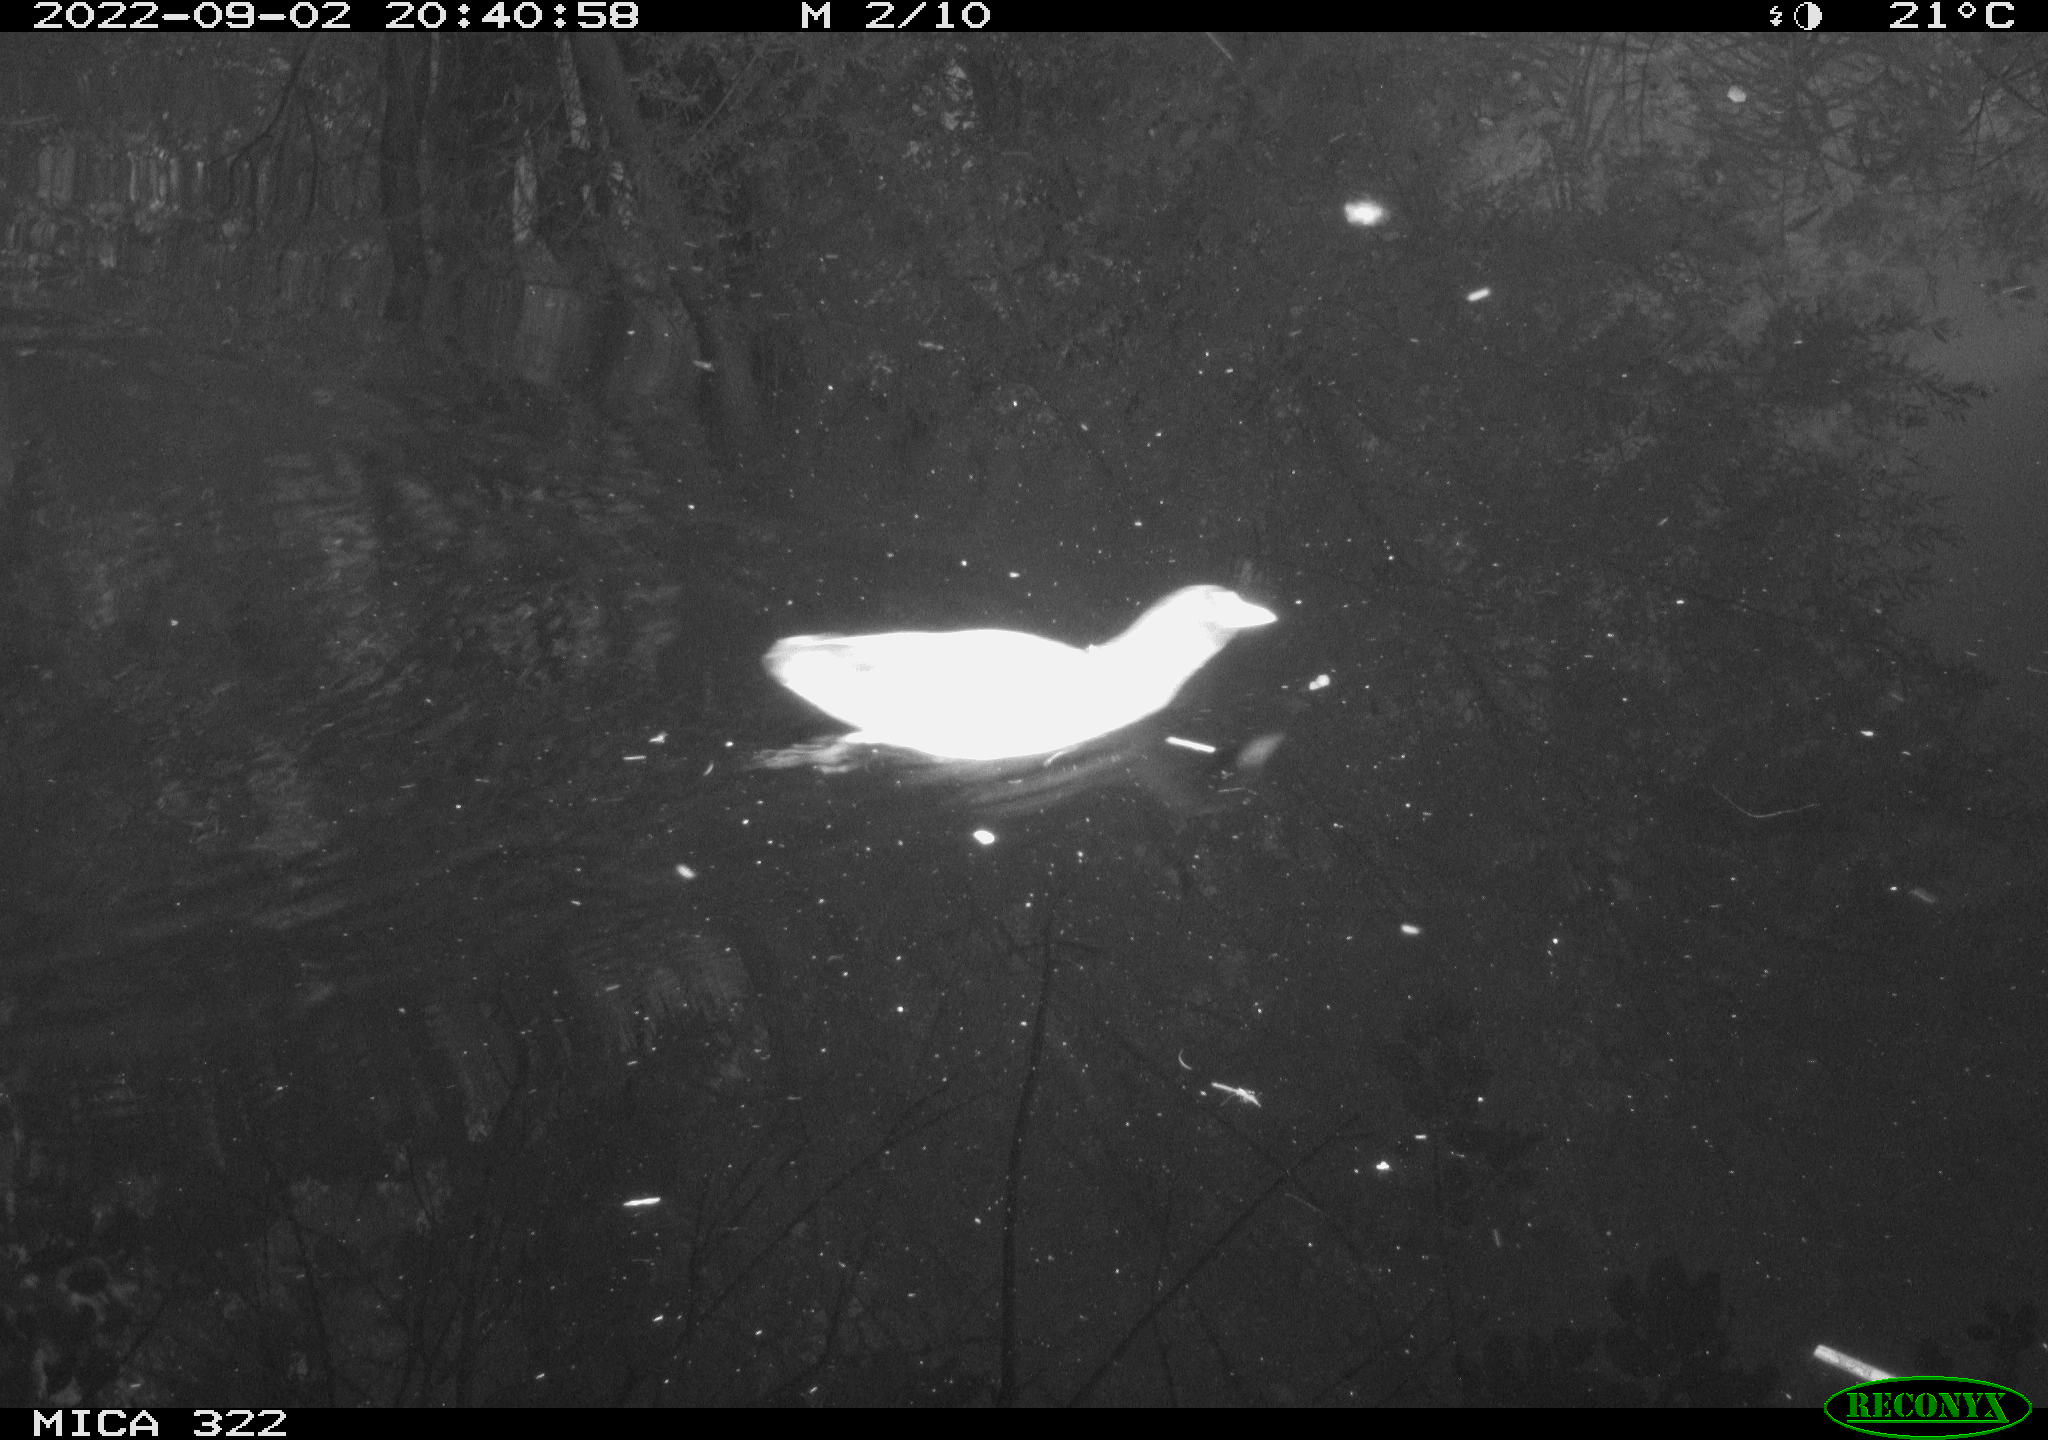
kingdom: Animalia
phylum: Chordata
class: Aves
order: Gruiformes
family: Rallidae
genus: Gallinula
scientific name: Gallinula chloropus
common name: Common moorhen
